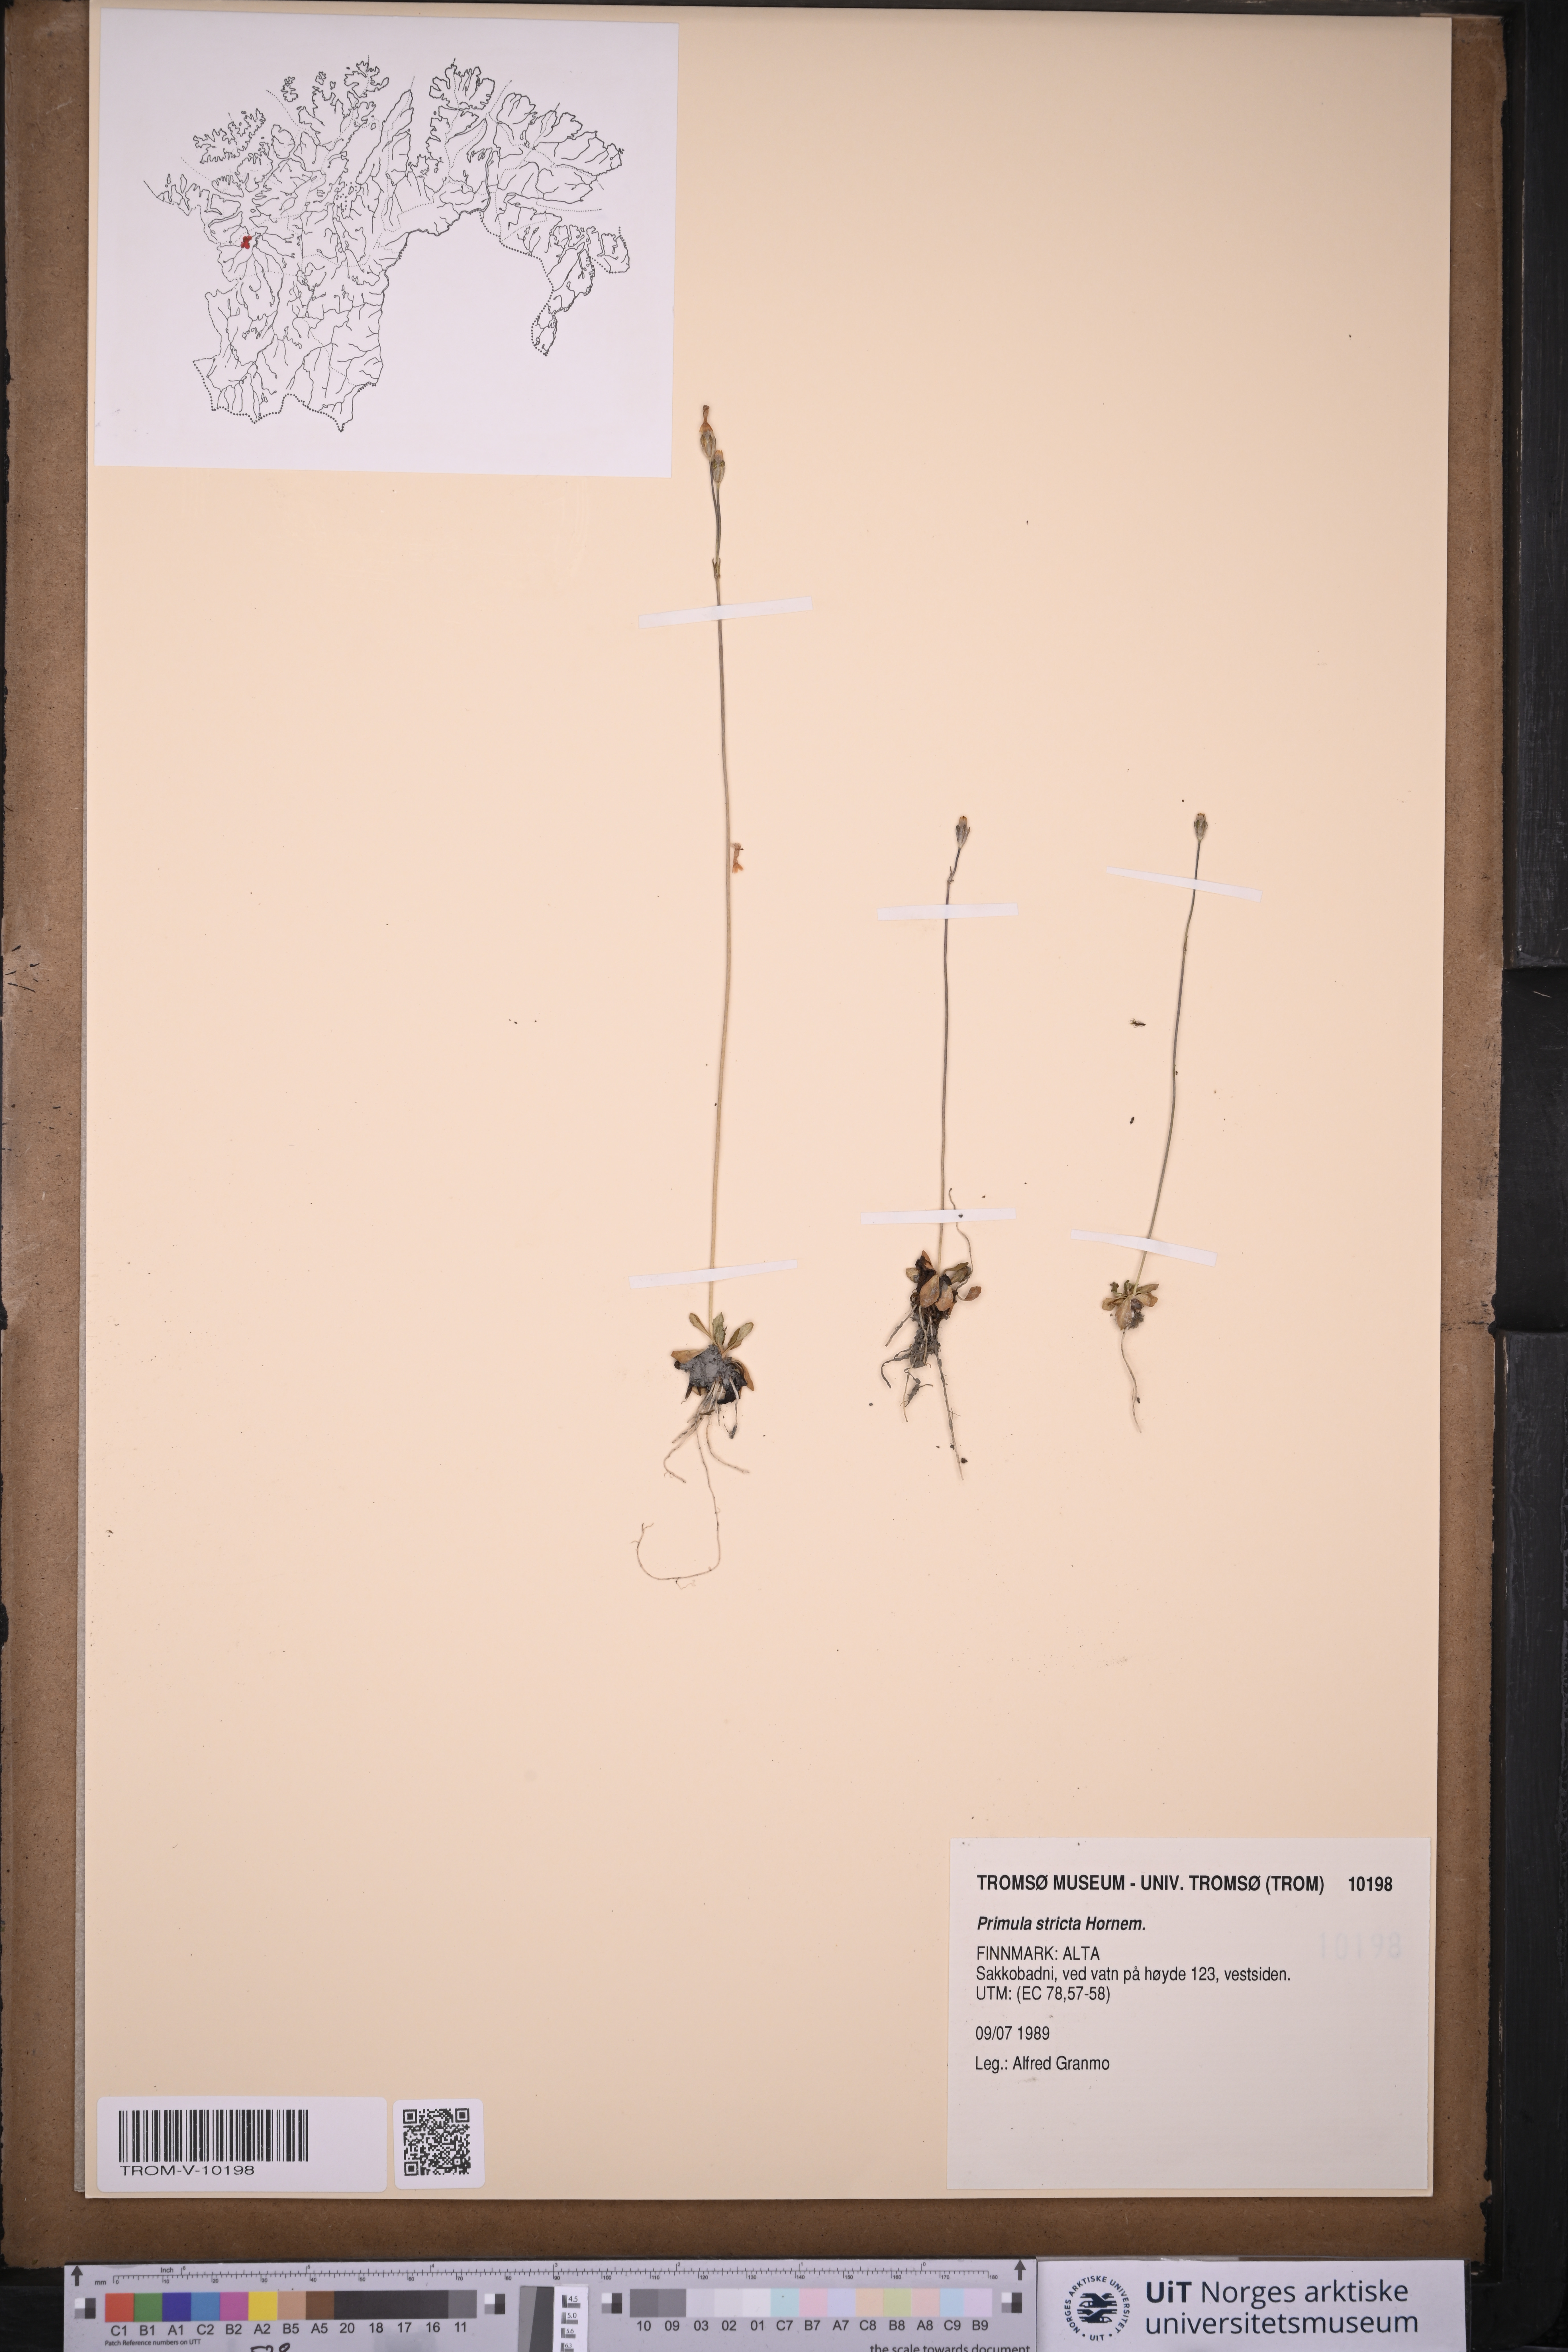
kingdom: Plantae
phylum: Tracheophyta
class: Magnoliopsida
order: Ericales
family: Primulaceae
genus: Primula
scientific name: Primula stricta
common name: Coastal primrose
